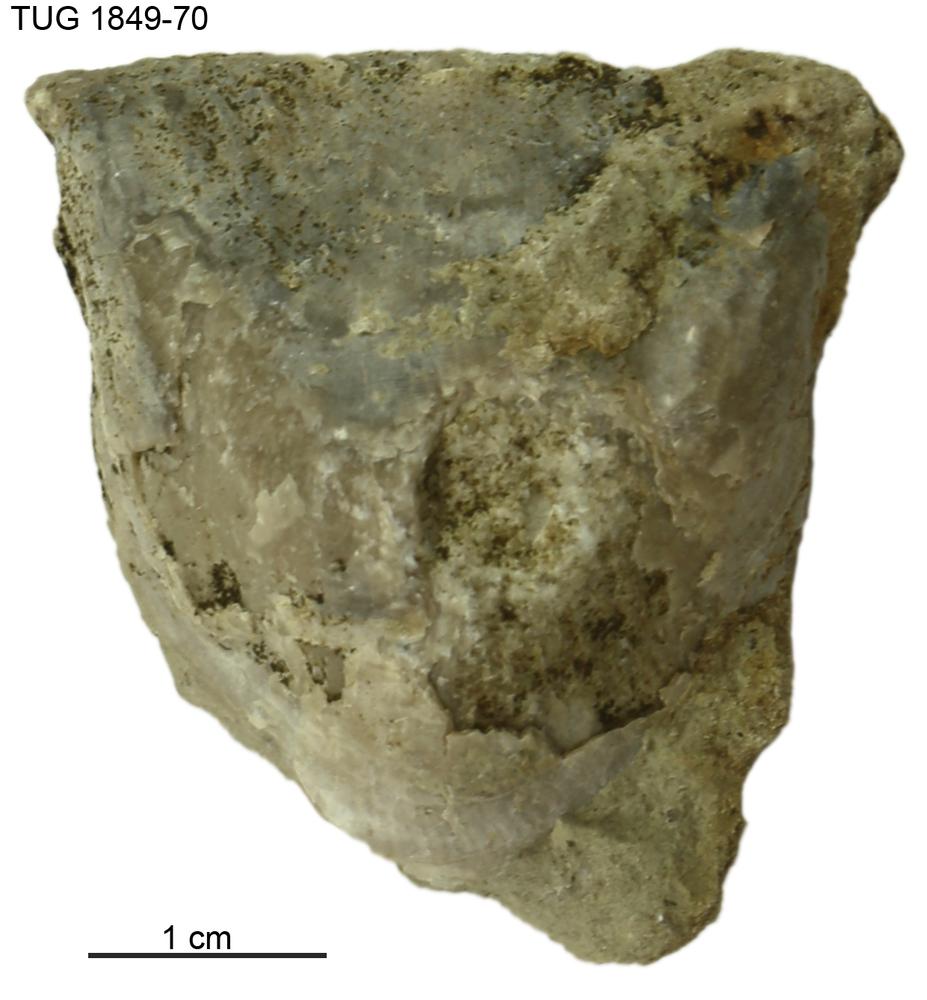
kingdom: Animalia
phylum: Brachiopoda
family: Strophomenidae
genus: Leptaena
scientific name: Leptaena
